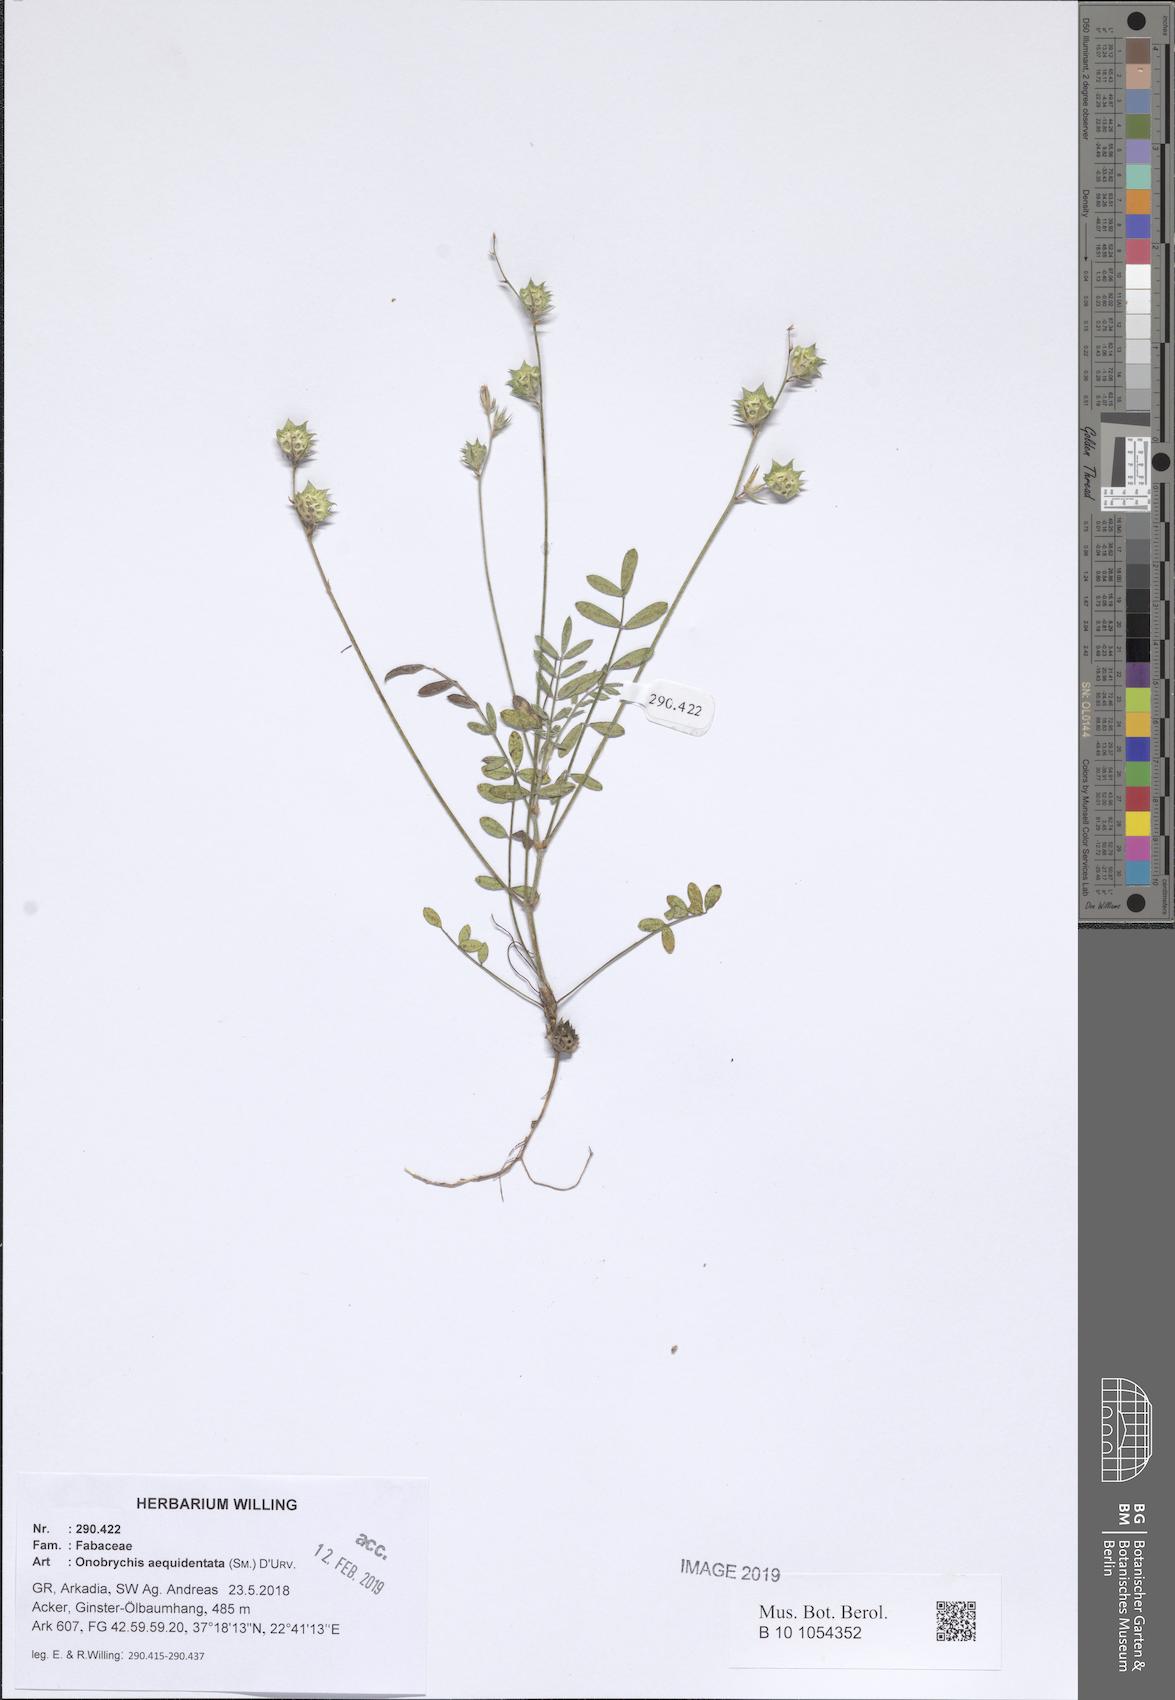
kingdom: Plantae
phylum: Tracheophyta
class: Magnoliopsida
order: Fabales
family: Fabaceae
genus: Onobrychis
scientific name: Onobrychis aequidentata
